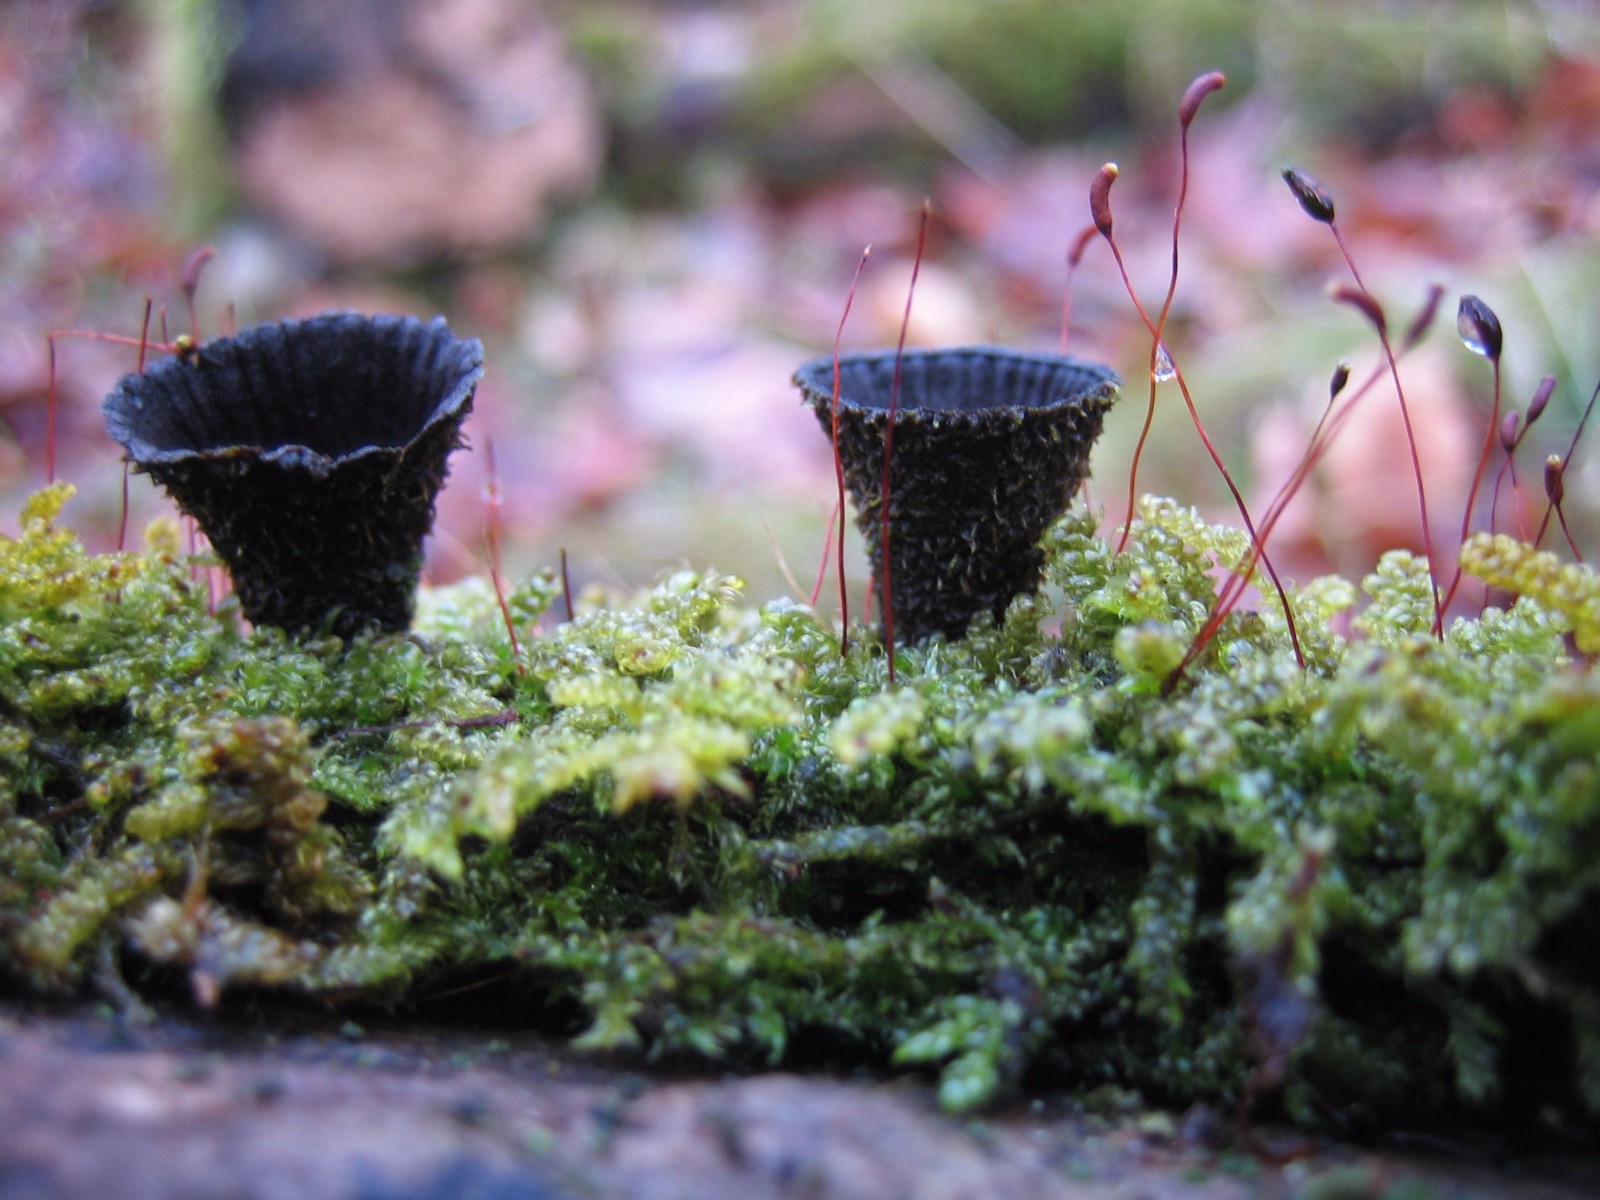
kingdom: Fungi
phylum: Basidiomycota
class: Agaricomycetes
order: Agaricales
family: Agaricaceae
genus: Cyathus
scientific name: Cyathus striatus
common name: stribet redesvamp
